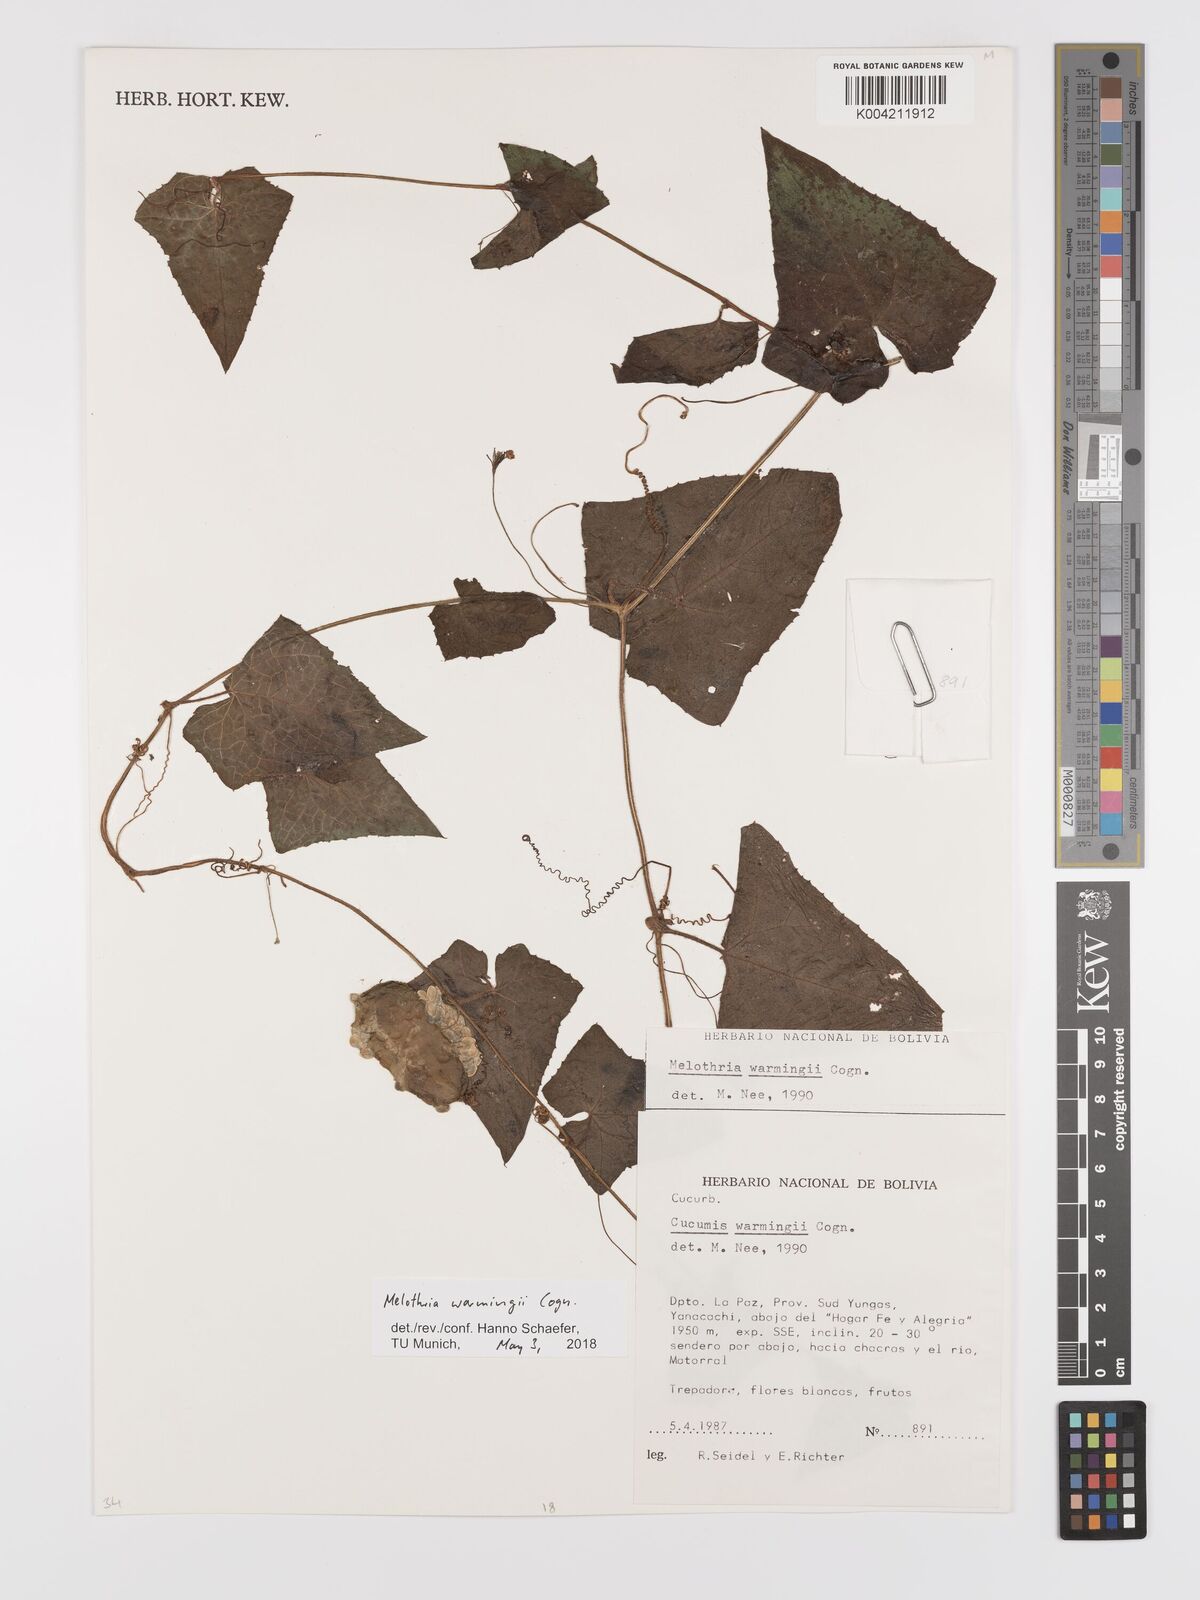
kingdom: Plantae
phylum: Tracheophyta
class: Magnoliopsida
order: Cucurbitales
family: Cucurbitaceae
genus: Melothria
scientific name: Melothria warmingii
